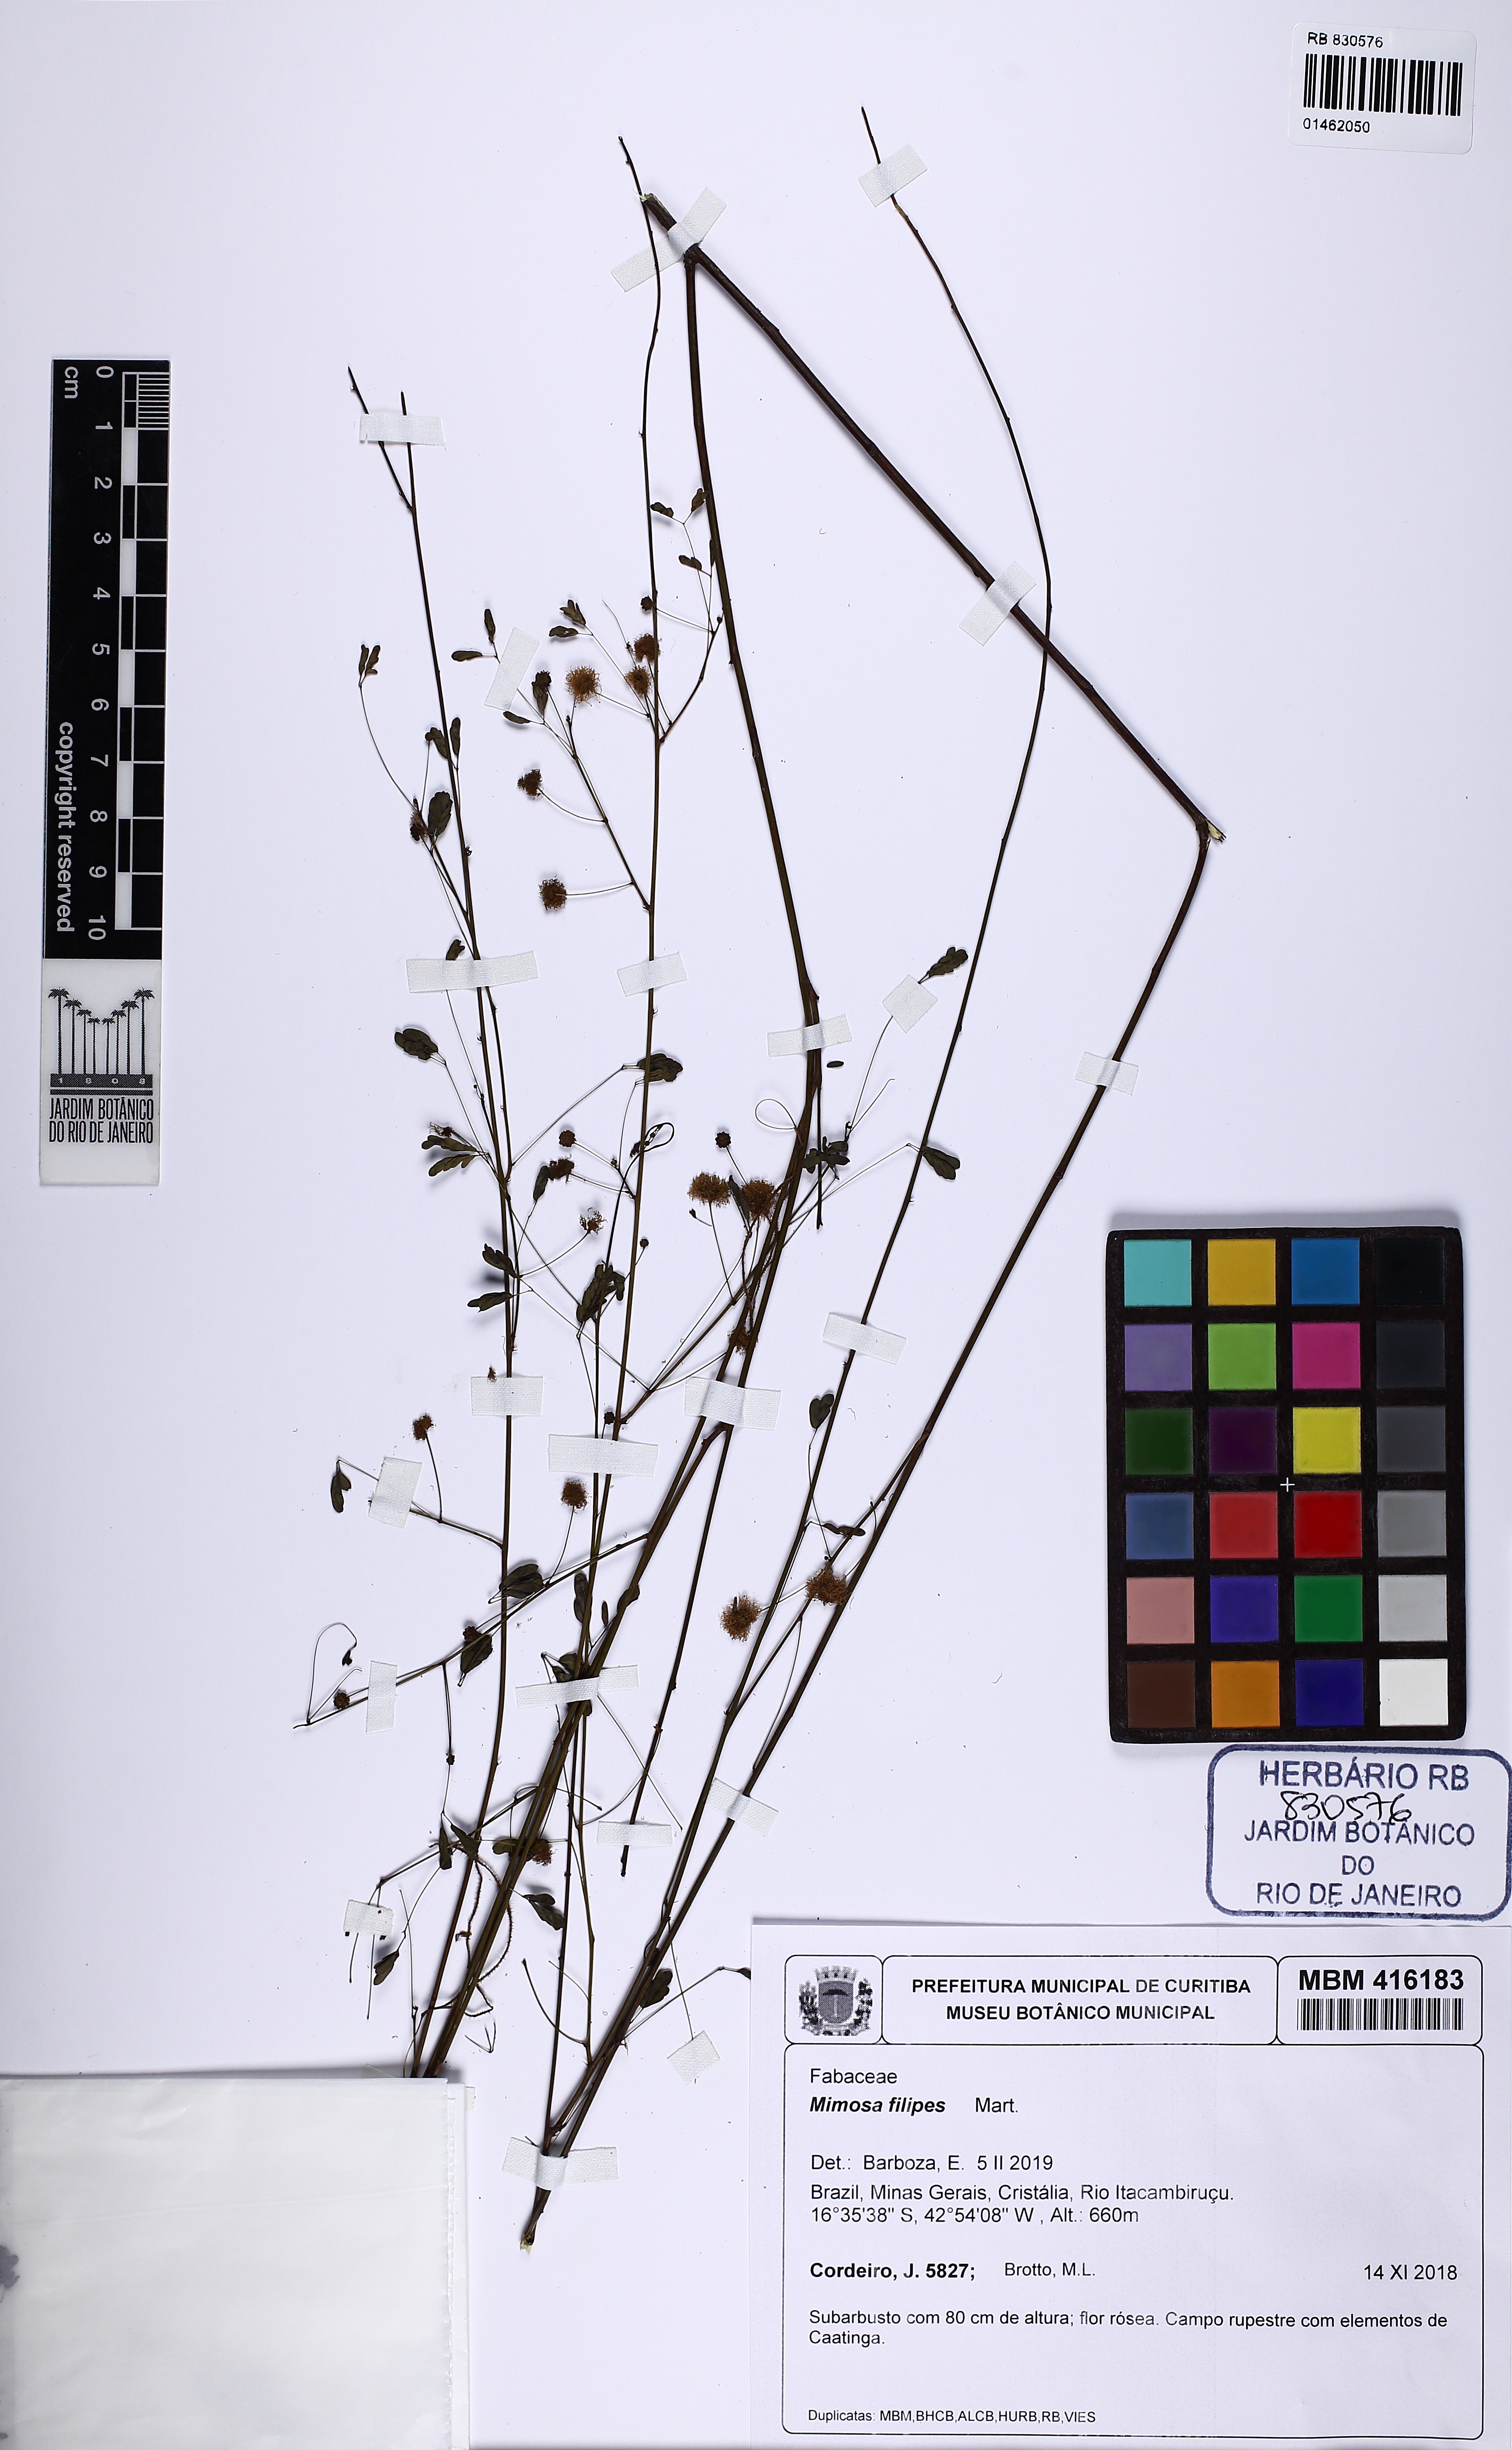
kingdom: Plantae
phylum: Tracheophyta
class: Magnoliopsida
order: Fabales
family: Fabaceae
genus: Mimosa
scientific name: Mimosa filipes
